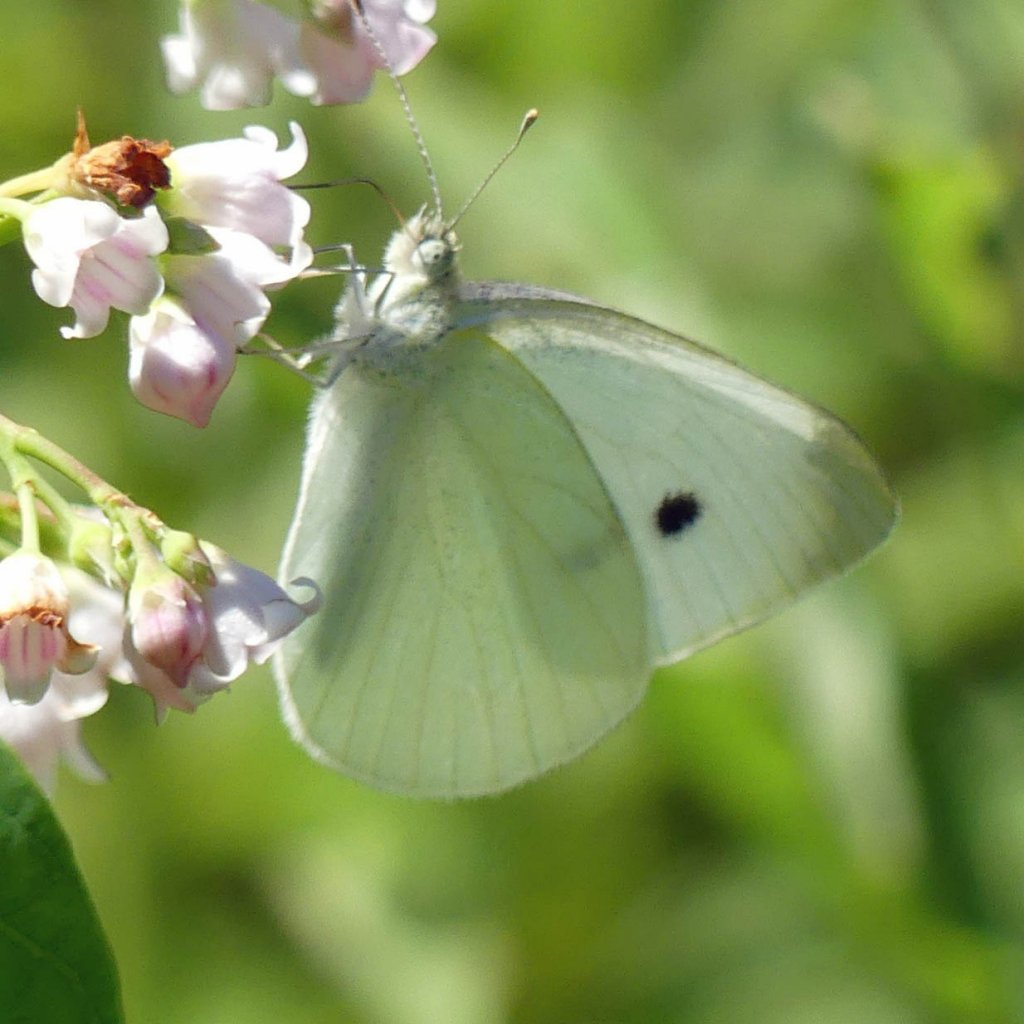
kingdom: Animalia
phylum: Arthropoda
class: Insecta
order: Lepidoptera
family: Pieridae
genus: Pieris
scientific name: Pieris rapae
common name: Cabbage White
